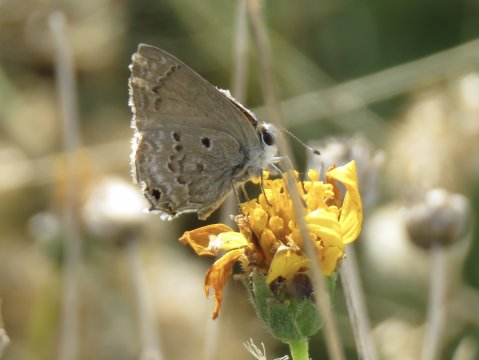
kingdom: Animalia
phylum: Arthropoda
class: Insecta
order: Lepidoptera
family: Lycaenidae
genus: Callicista
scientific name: Callicista columella
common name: Mallow Scrub-Hairstreak
